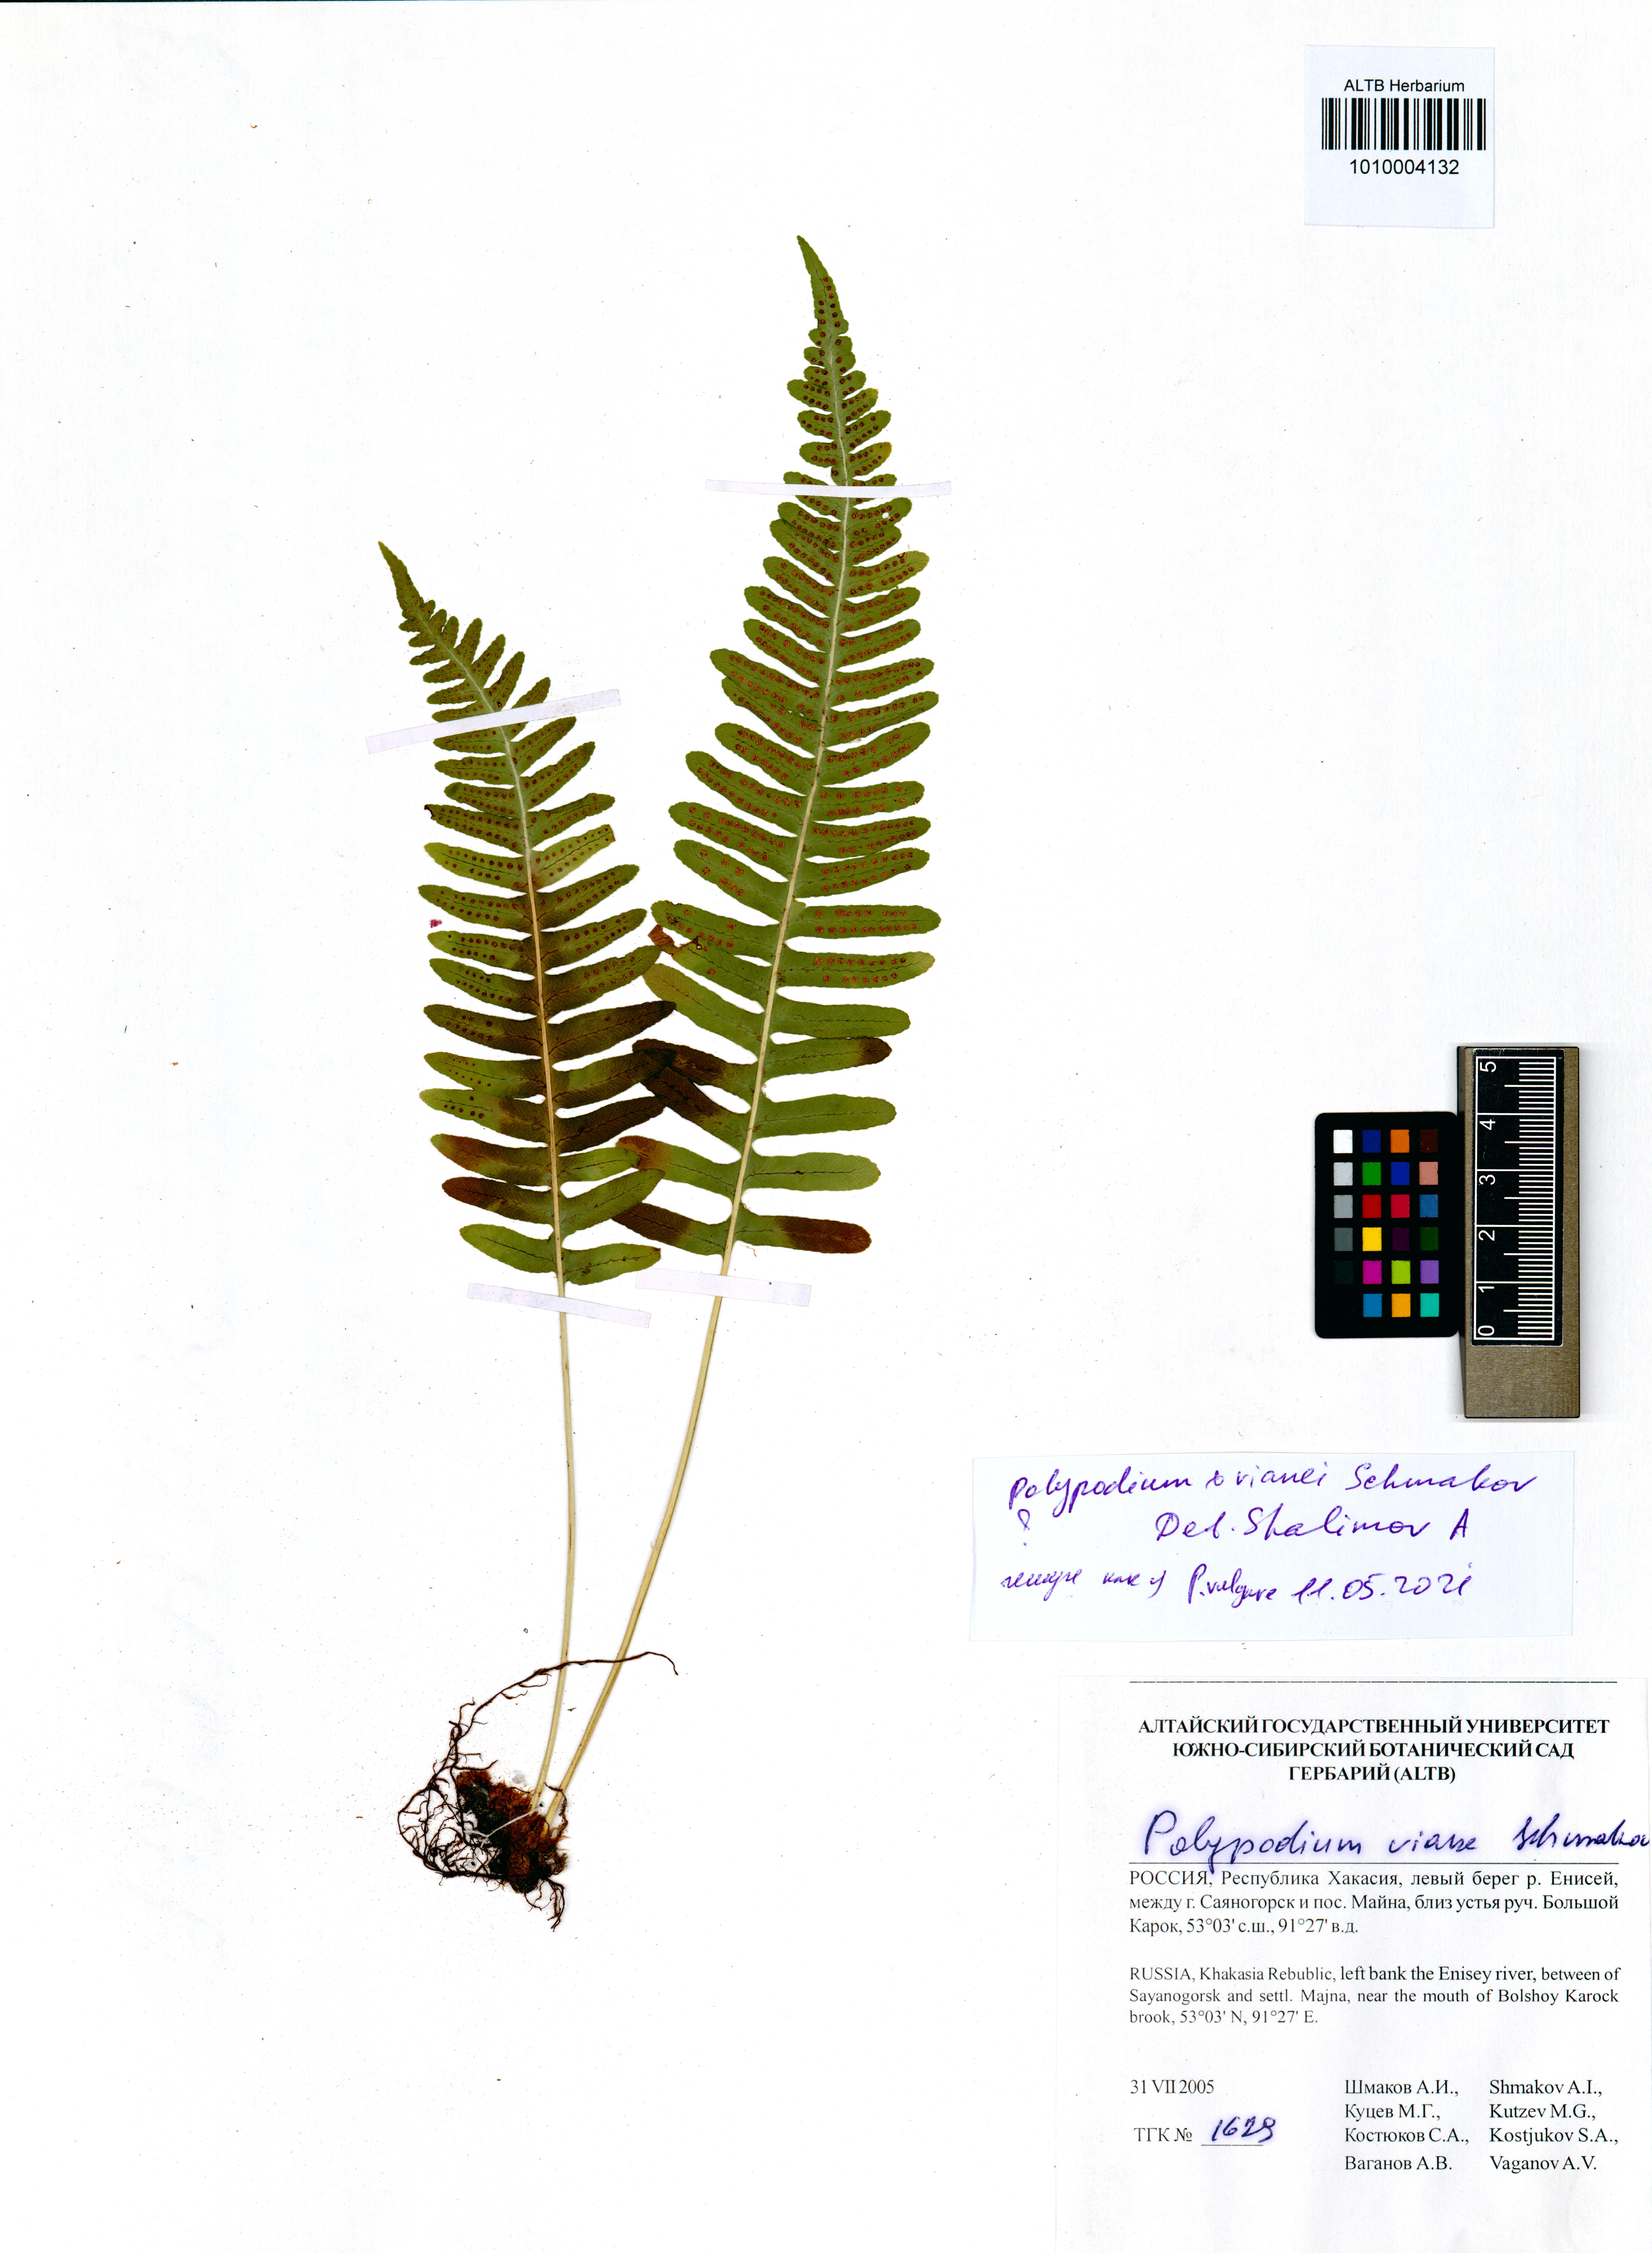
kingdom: Plantae
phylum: Tracheophyta
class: Polypodiopsida
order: Polypodiales
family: Polypodiaceae
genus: Polypodium
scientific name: Polypodium vianei
